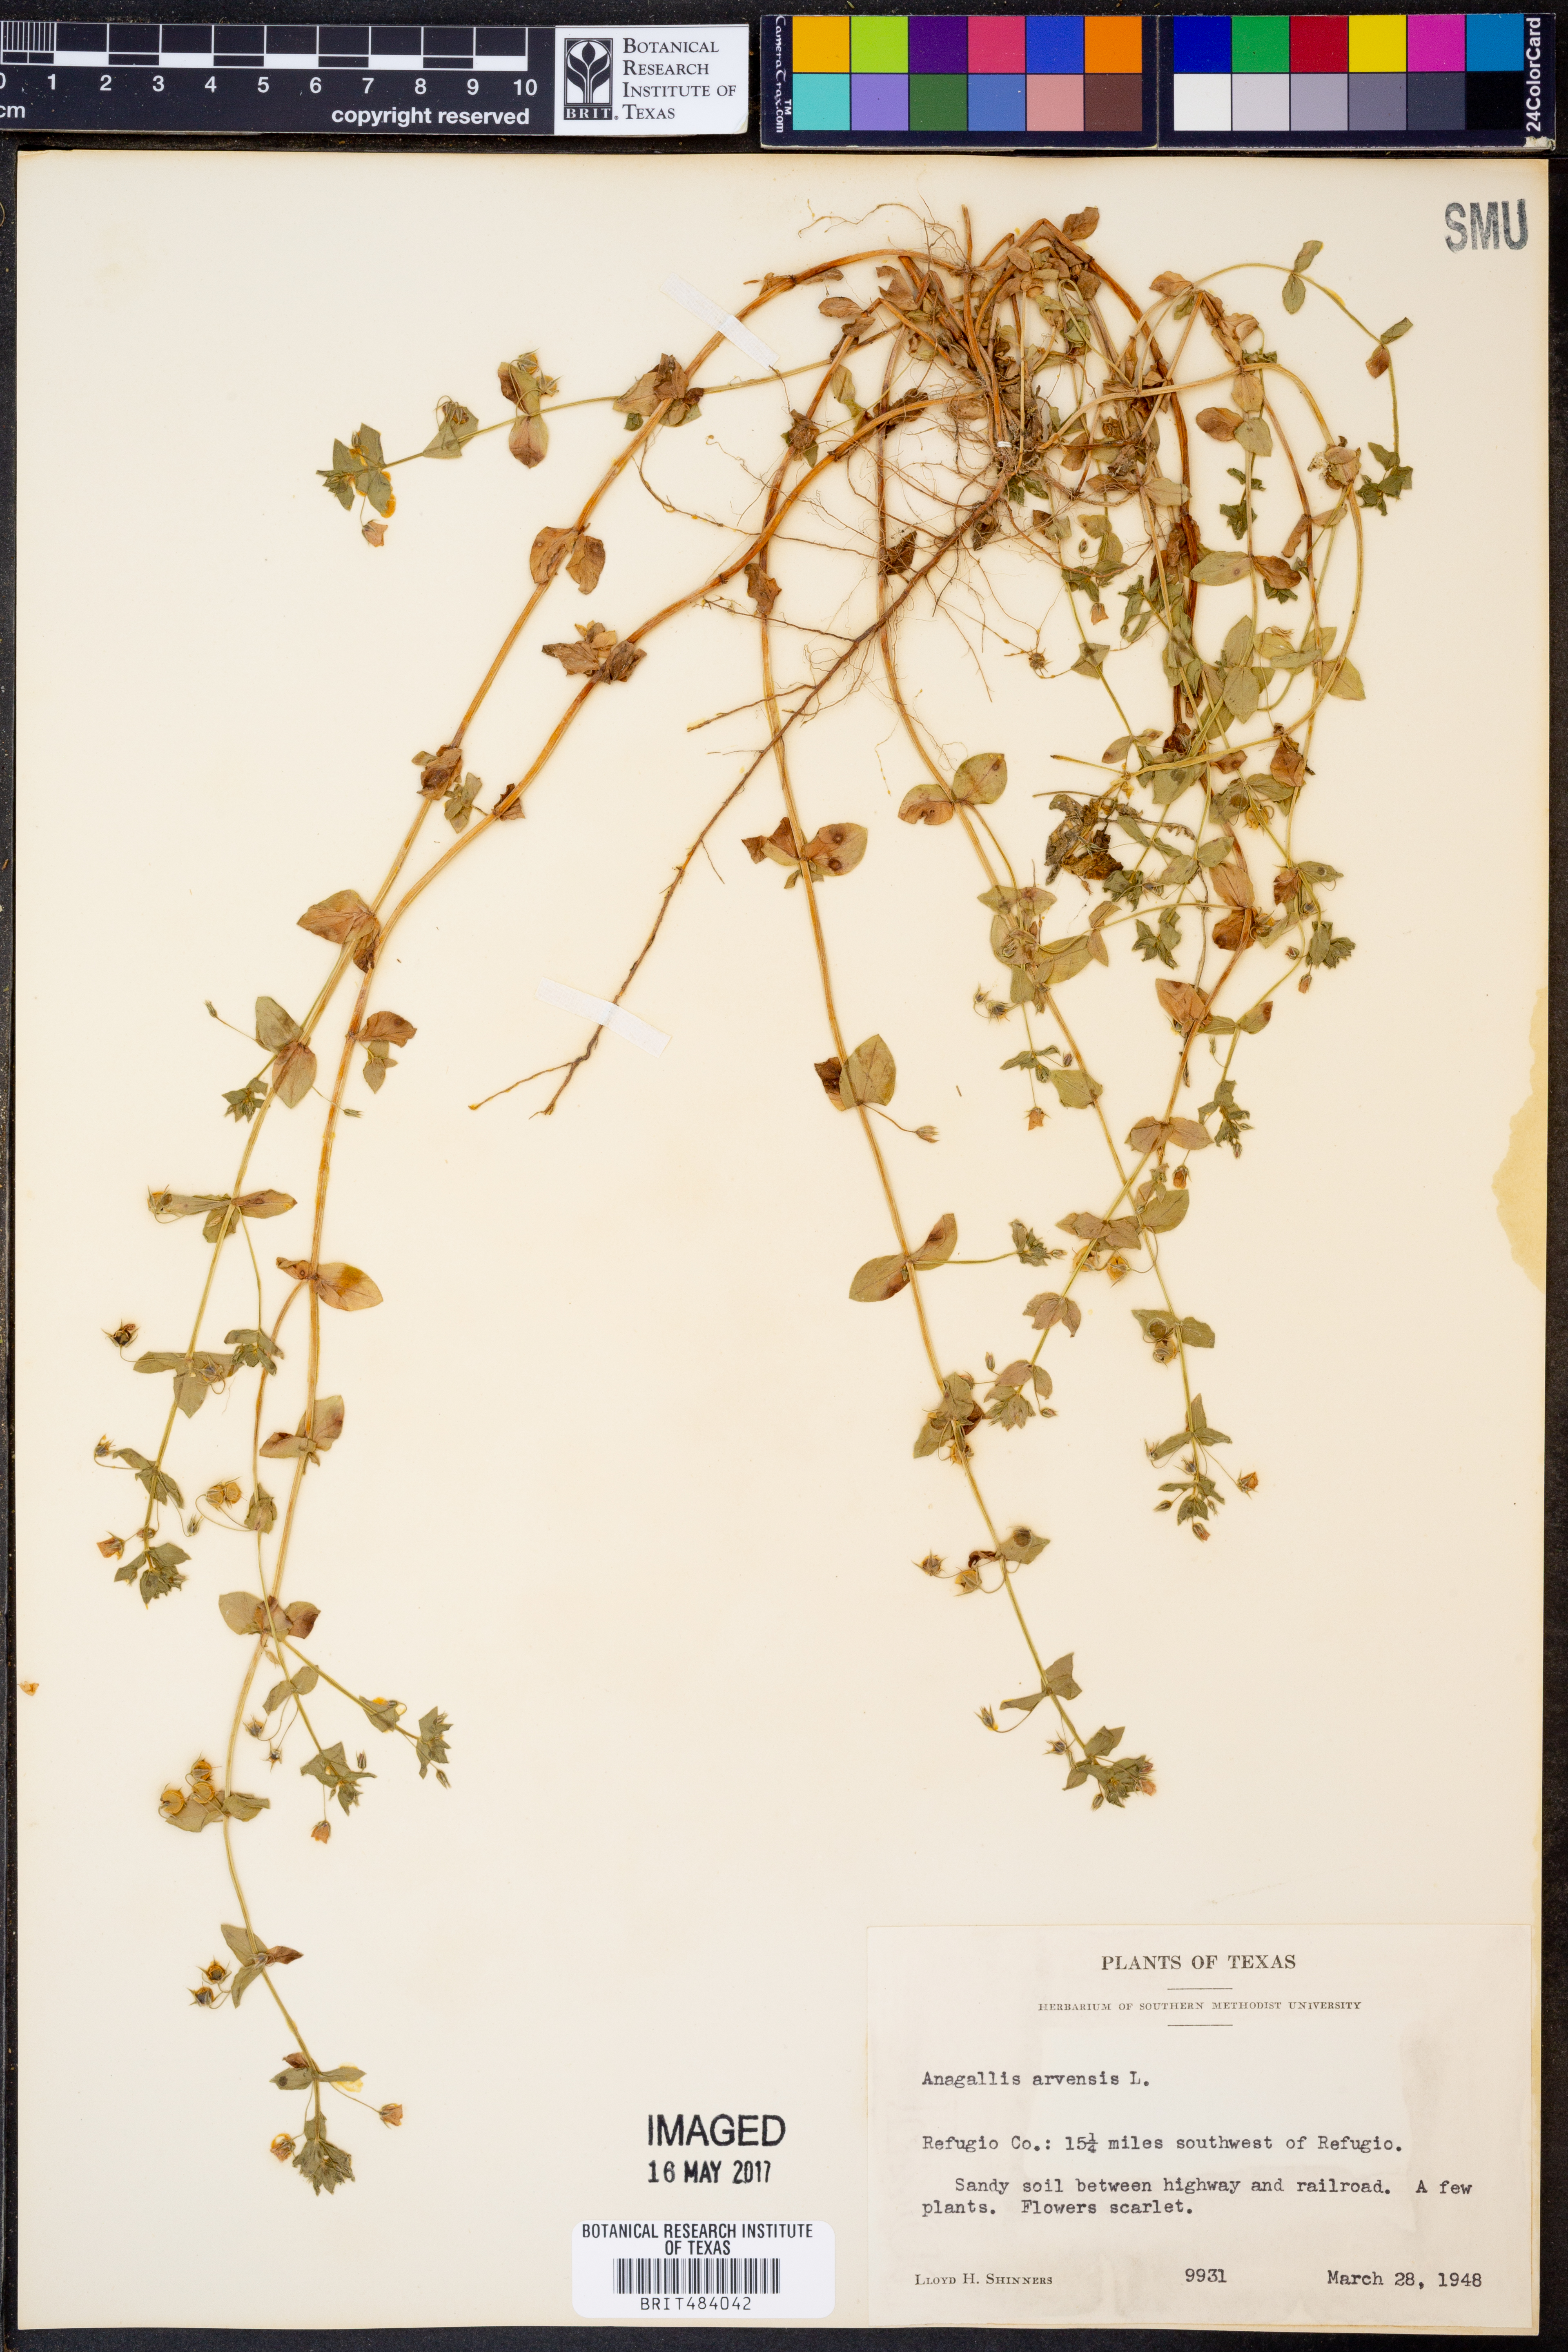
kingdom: Plantae
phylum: Tracheophyta
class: Magnoliopsida
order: Ericales
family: Primulaceae
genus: Lysimachia
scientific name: Lysimachia arvensis
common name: Scarlet pimpernel
